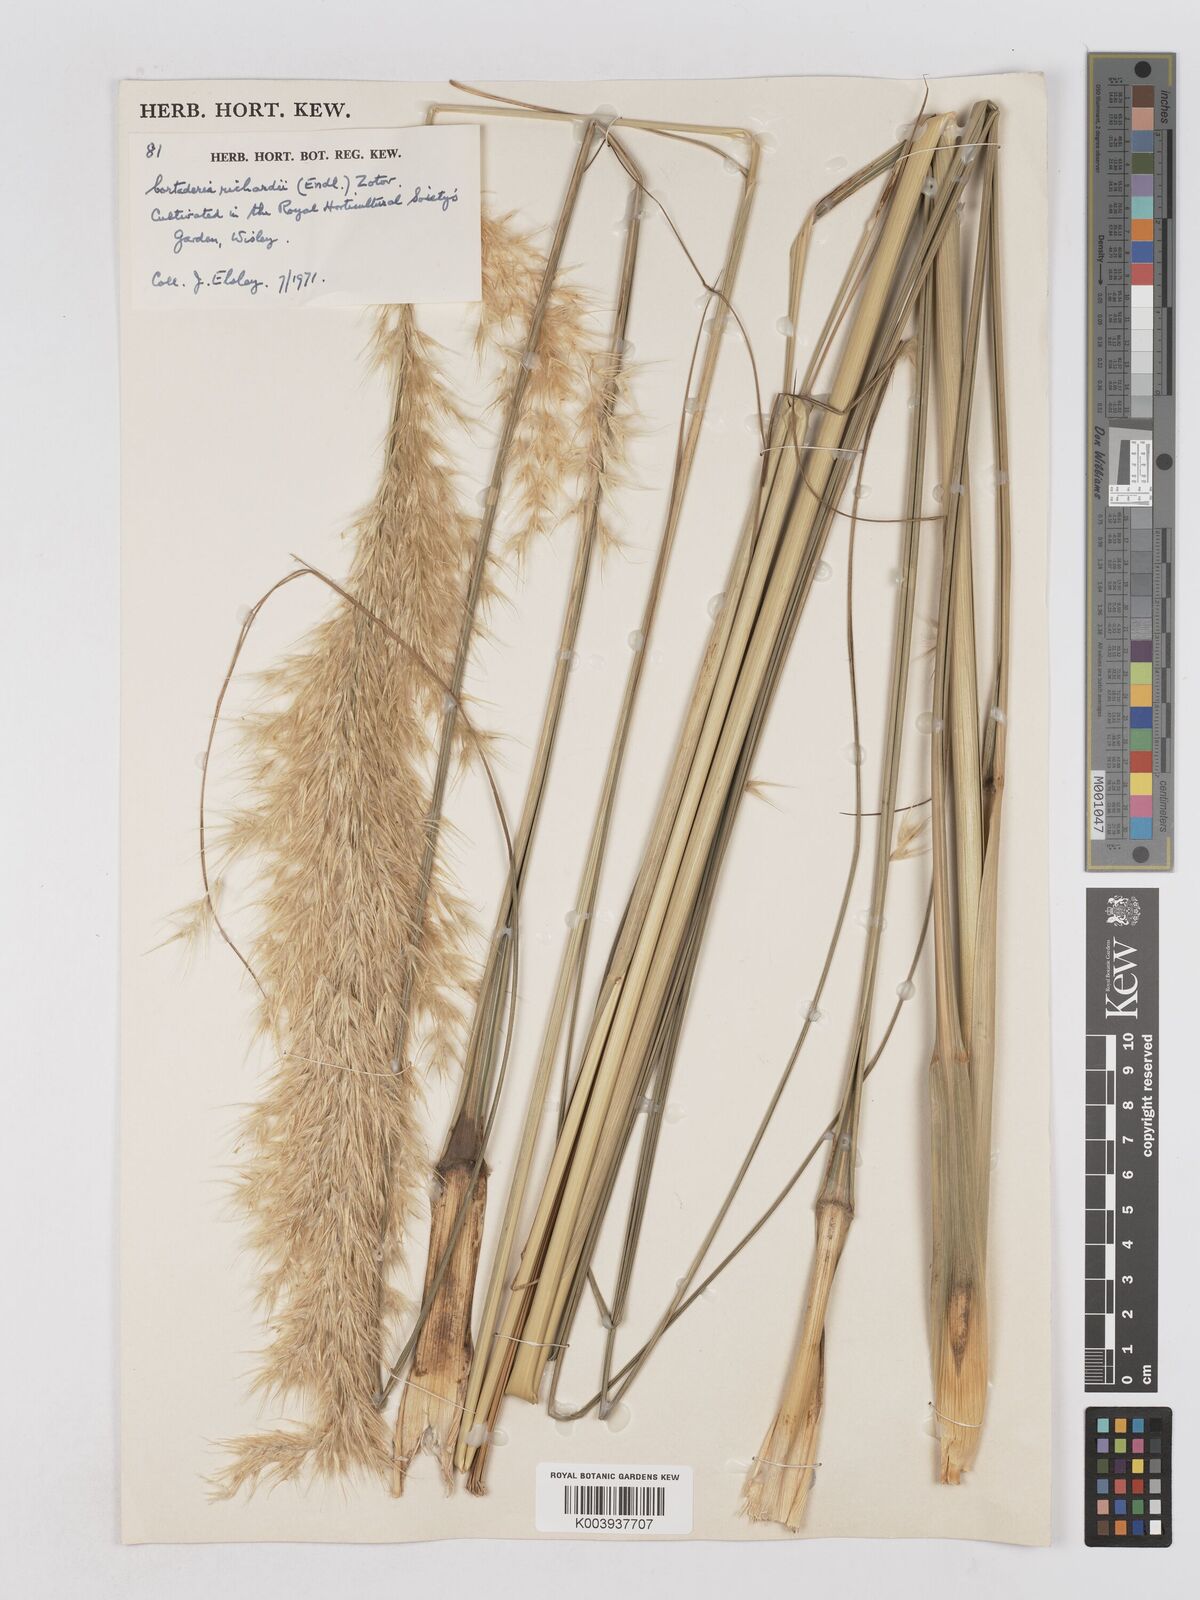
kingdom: Plantae
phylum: Tracheophyta
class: Liliopsida
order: Poales
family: Poaceae
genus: Austroderia
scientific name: Austroderia richardii
